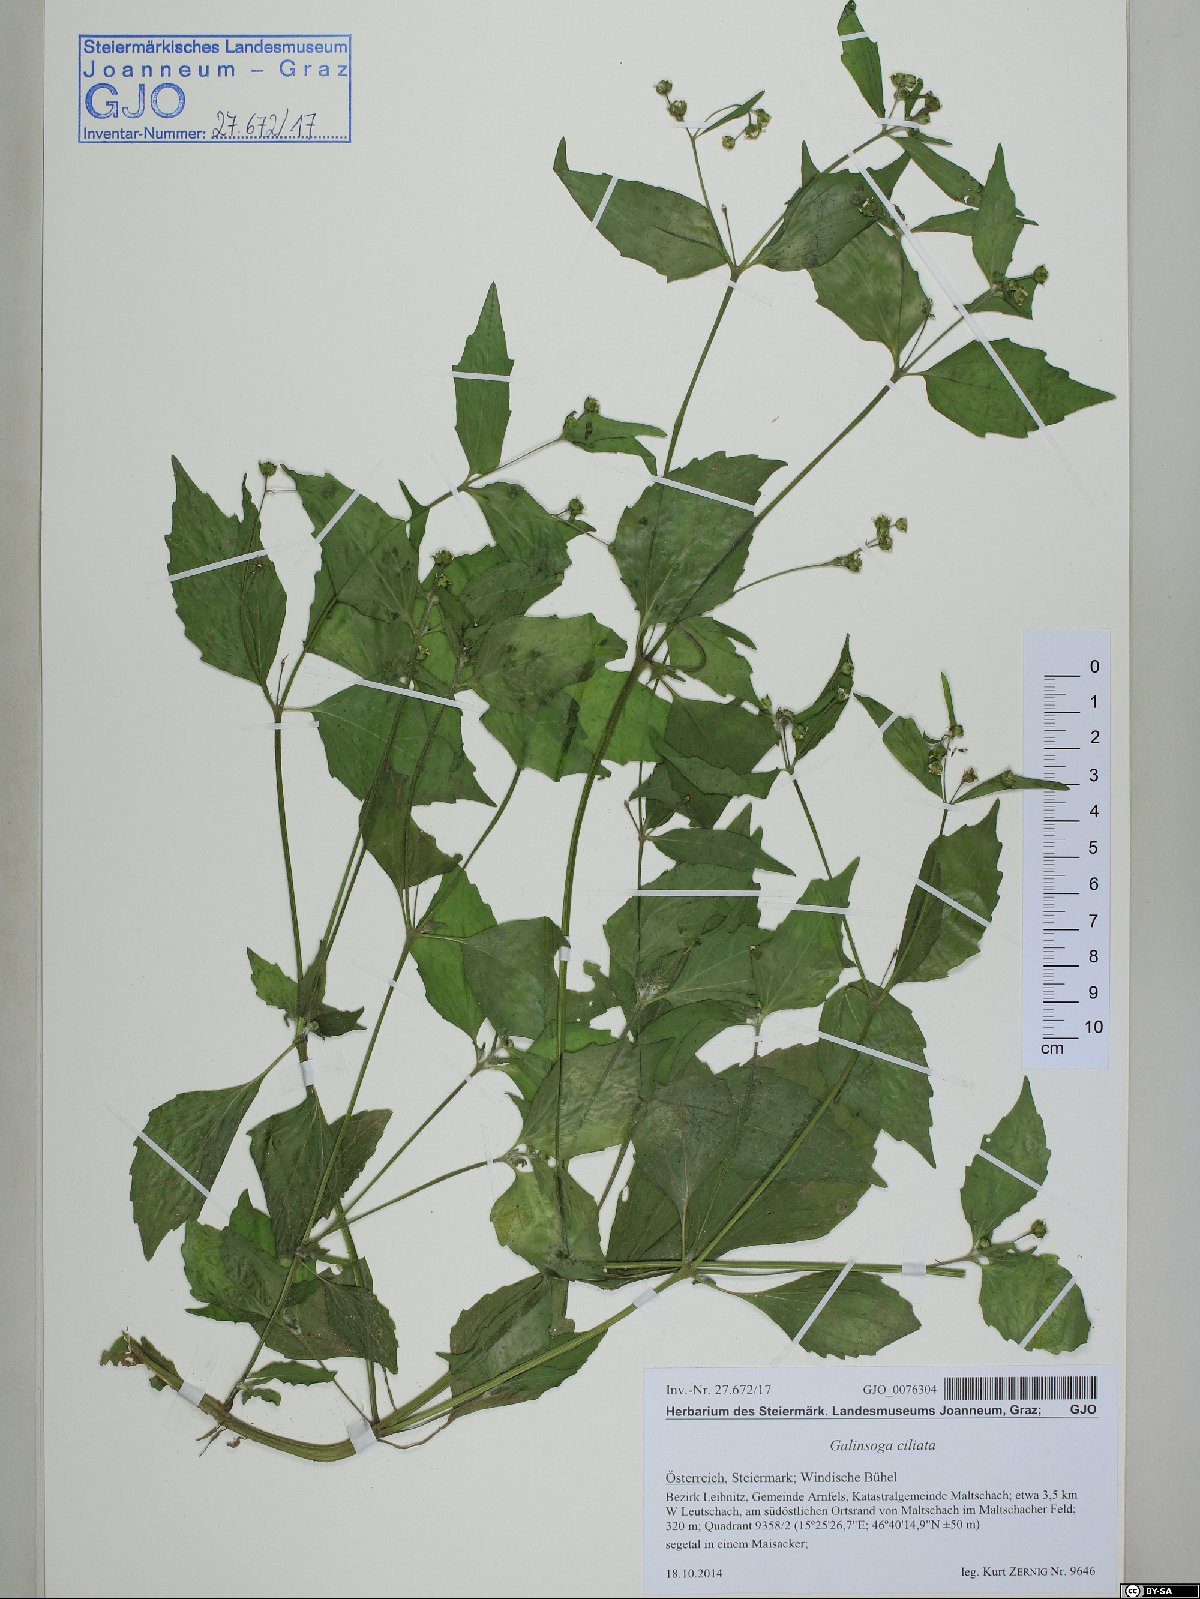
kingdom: Plantae
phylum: Tracheophyta
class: Magnoliopsida
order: Asterales
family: Asteraceae
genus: Galinsoga
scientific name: Galinsoga quadriradiata
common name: Shaggy soldier
